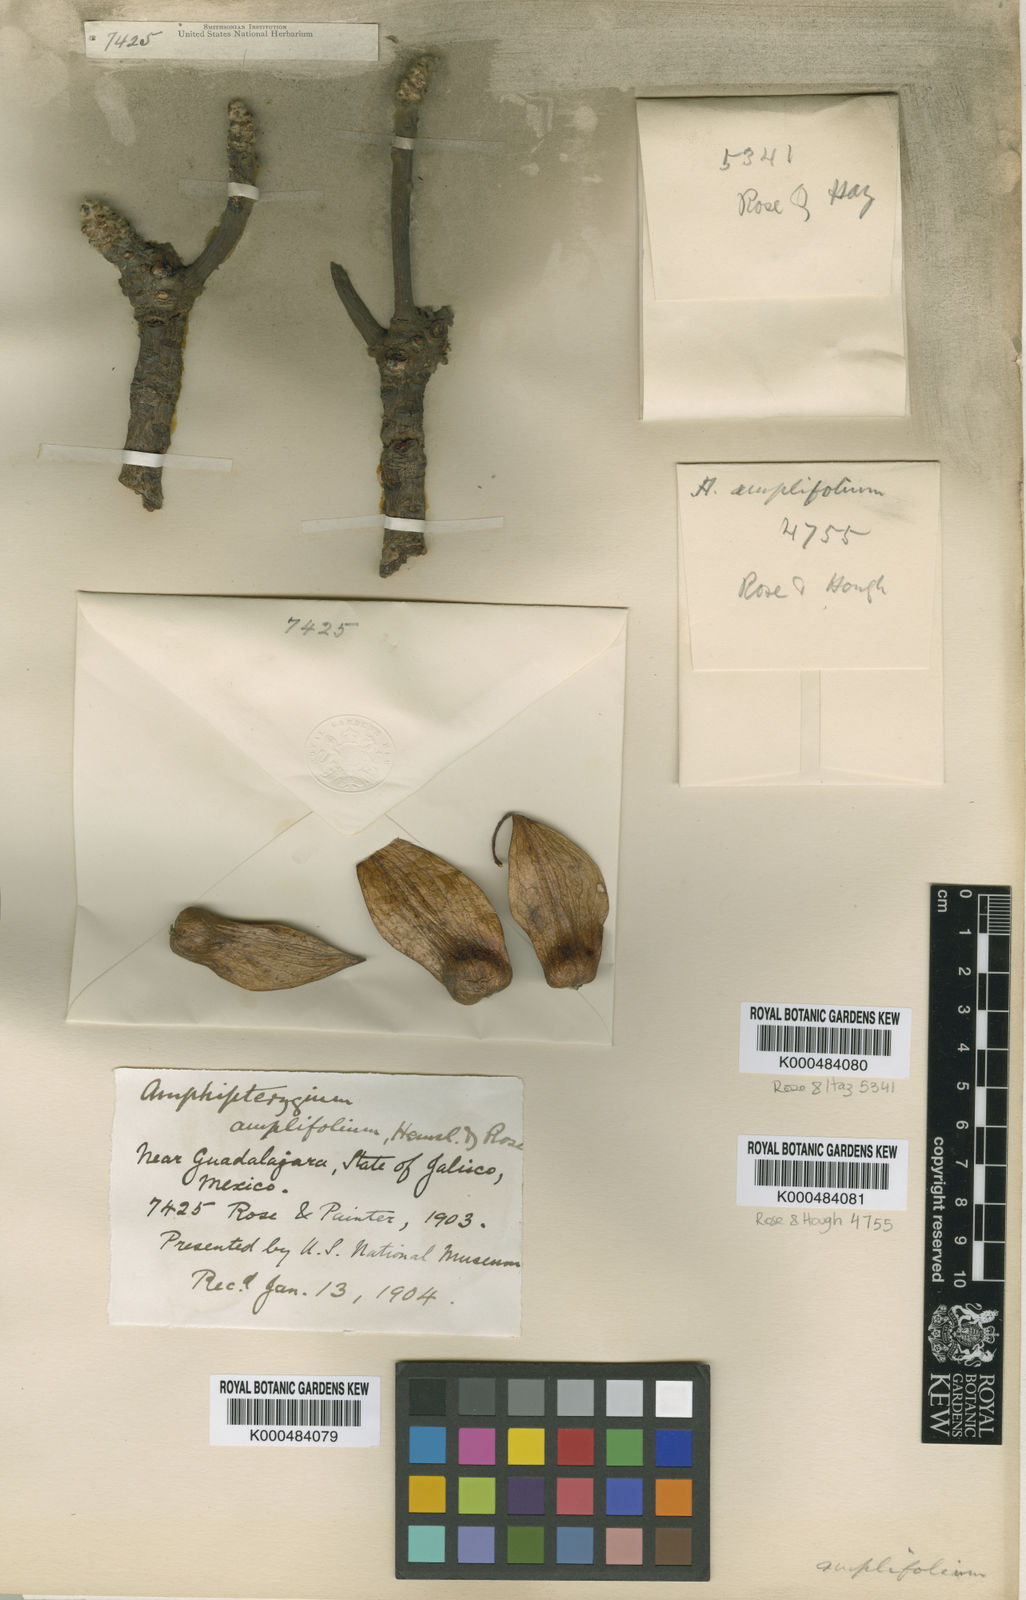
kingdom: Plantae
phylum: Tracheophyta
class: Magnoliopsida
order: Sapindales
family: Anacardiaceae
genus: Amphipterygium
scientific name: Amphipterygium
